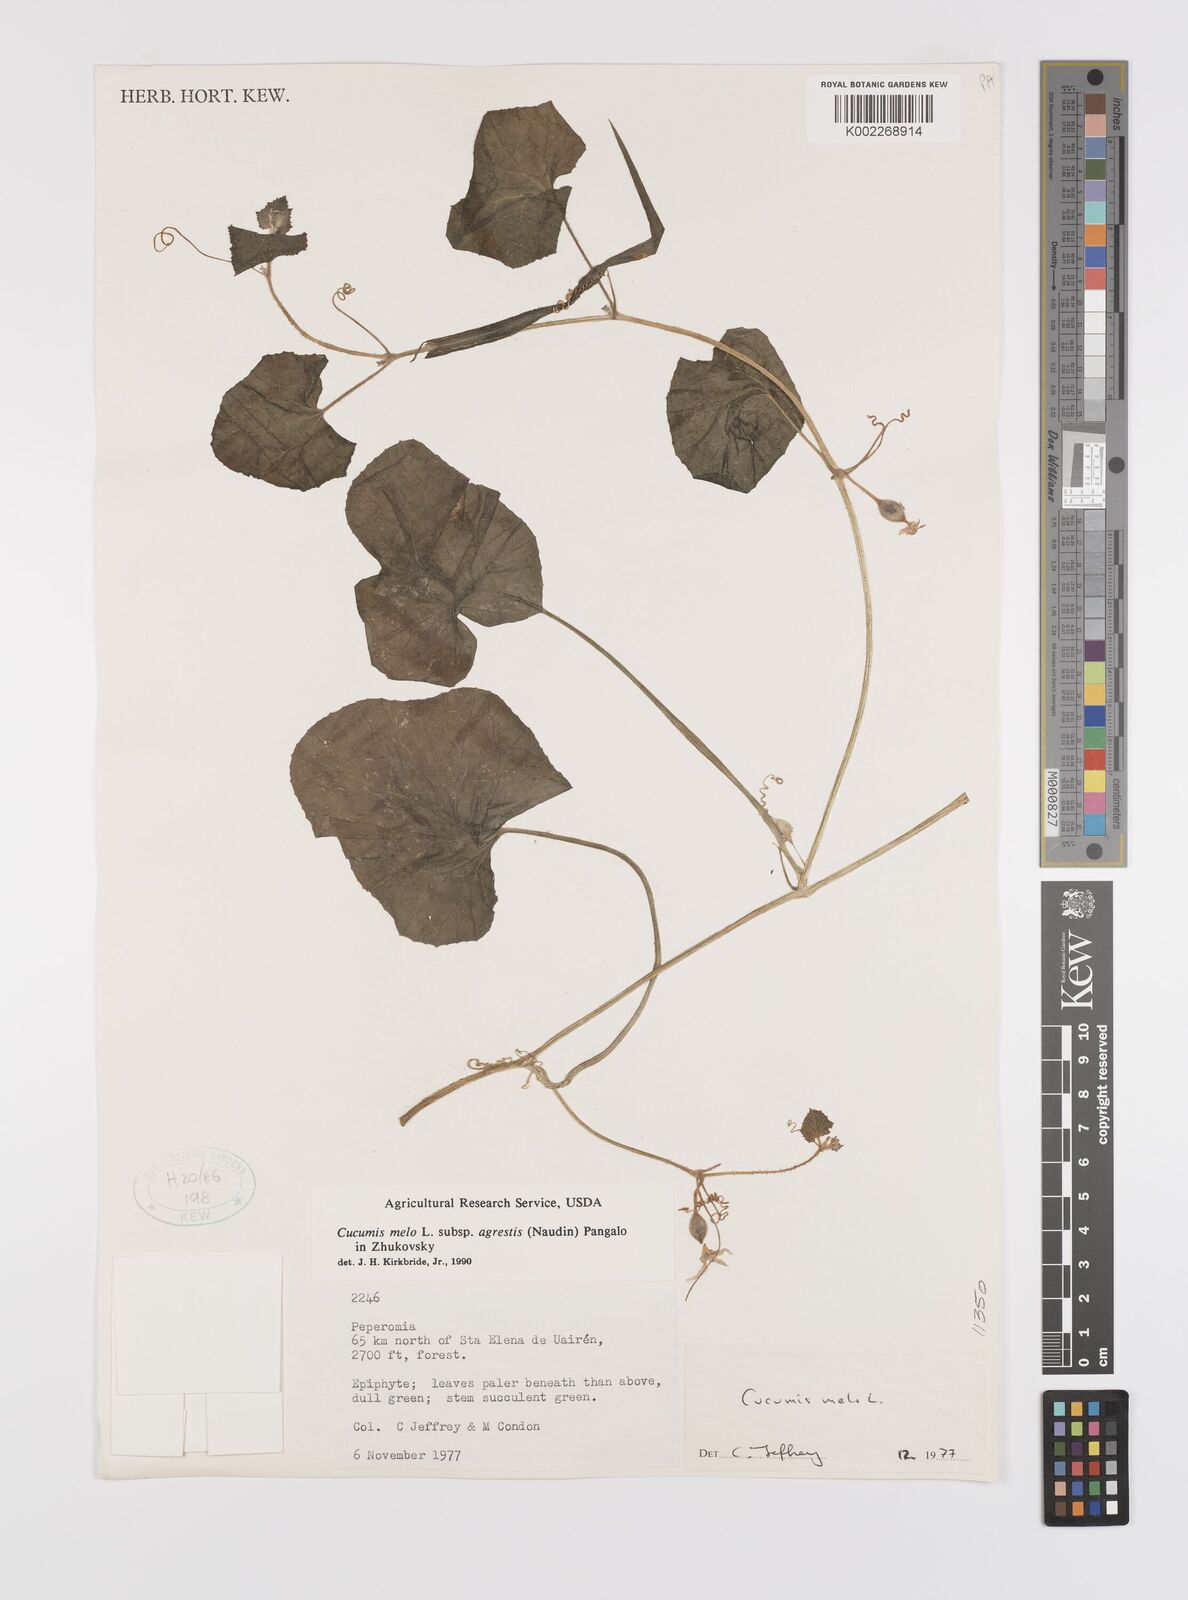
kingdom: Plantae
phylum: Tracheophyta
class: Magnoliopsida
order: Cucurbitales
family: Cucurbitaceae
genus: Cucumis
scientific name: Cucumis melo
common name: Melon
